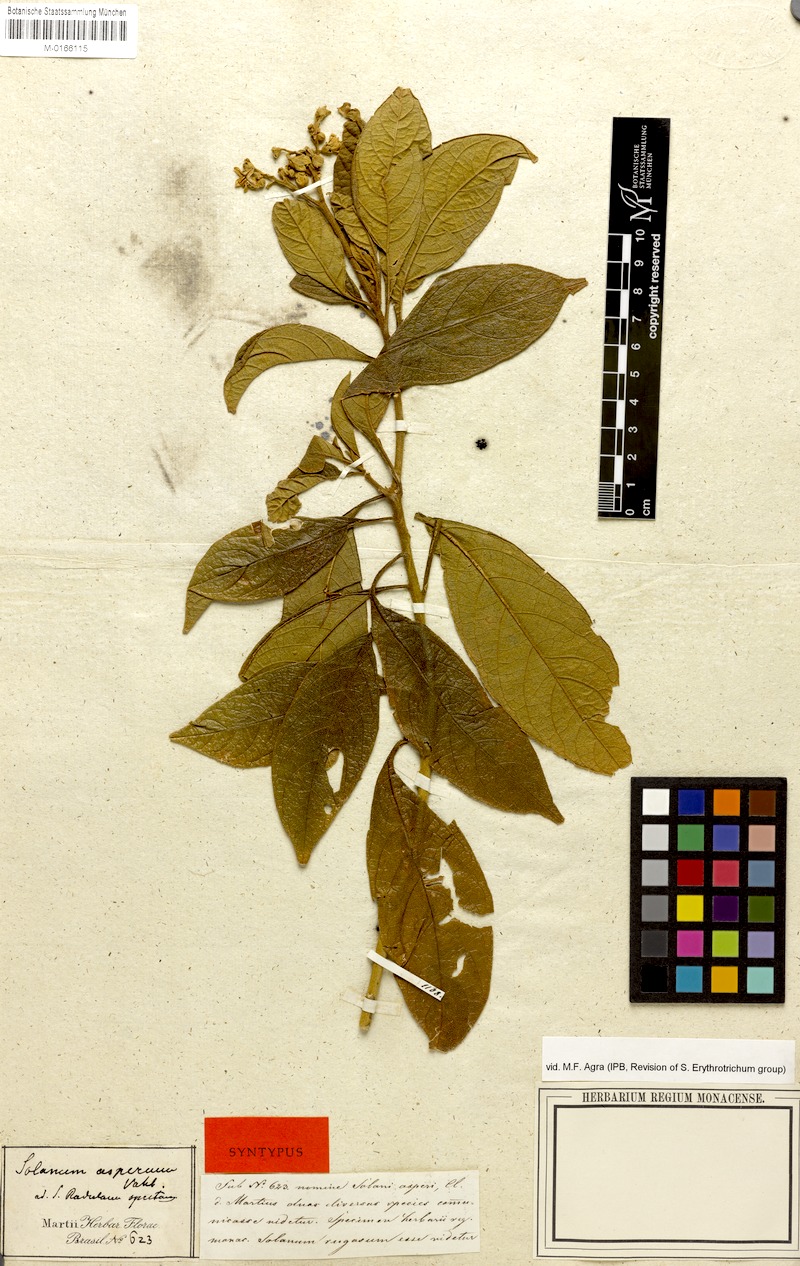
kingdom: Plantae
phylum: Tracheophyta
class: Magnoliopsida
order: Solanales
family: Solanaceae
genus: Solanum
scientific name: Solanum rugosum
